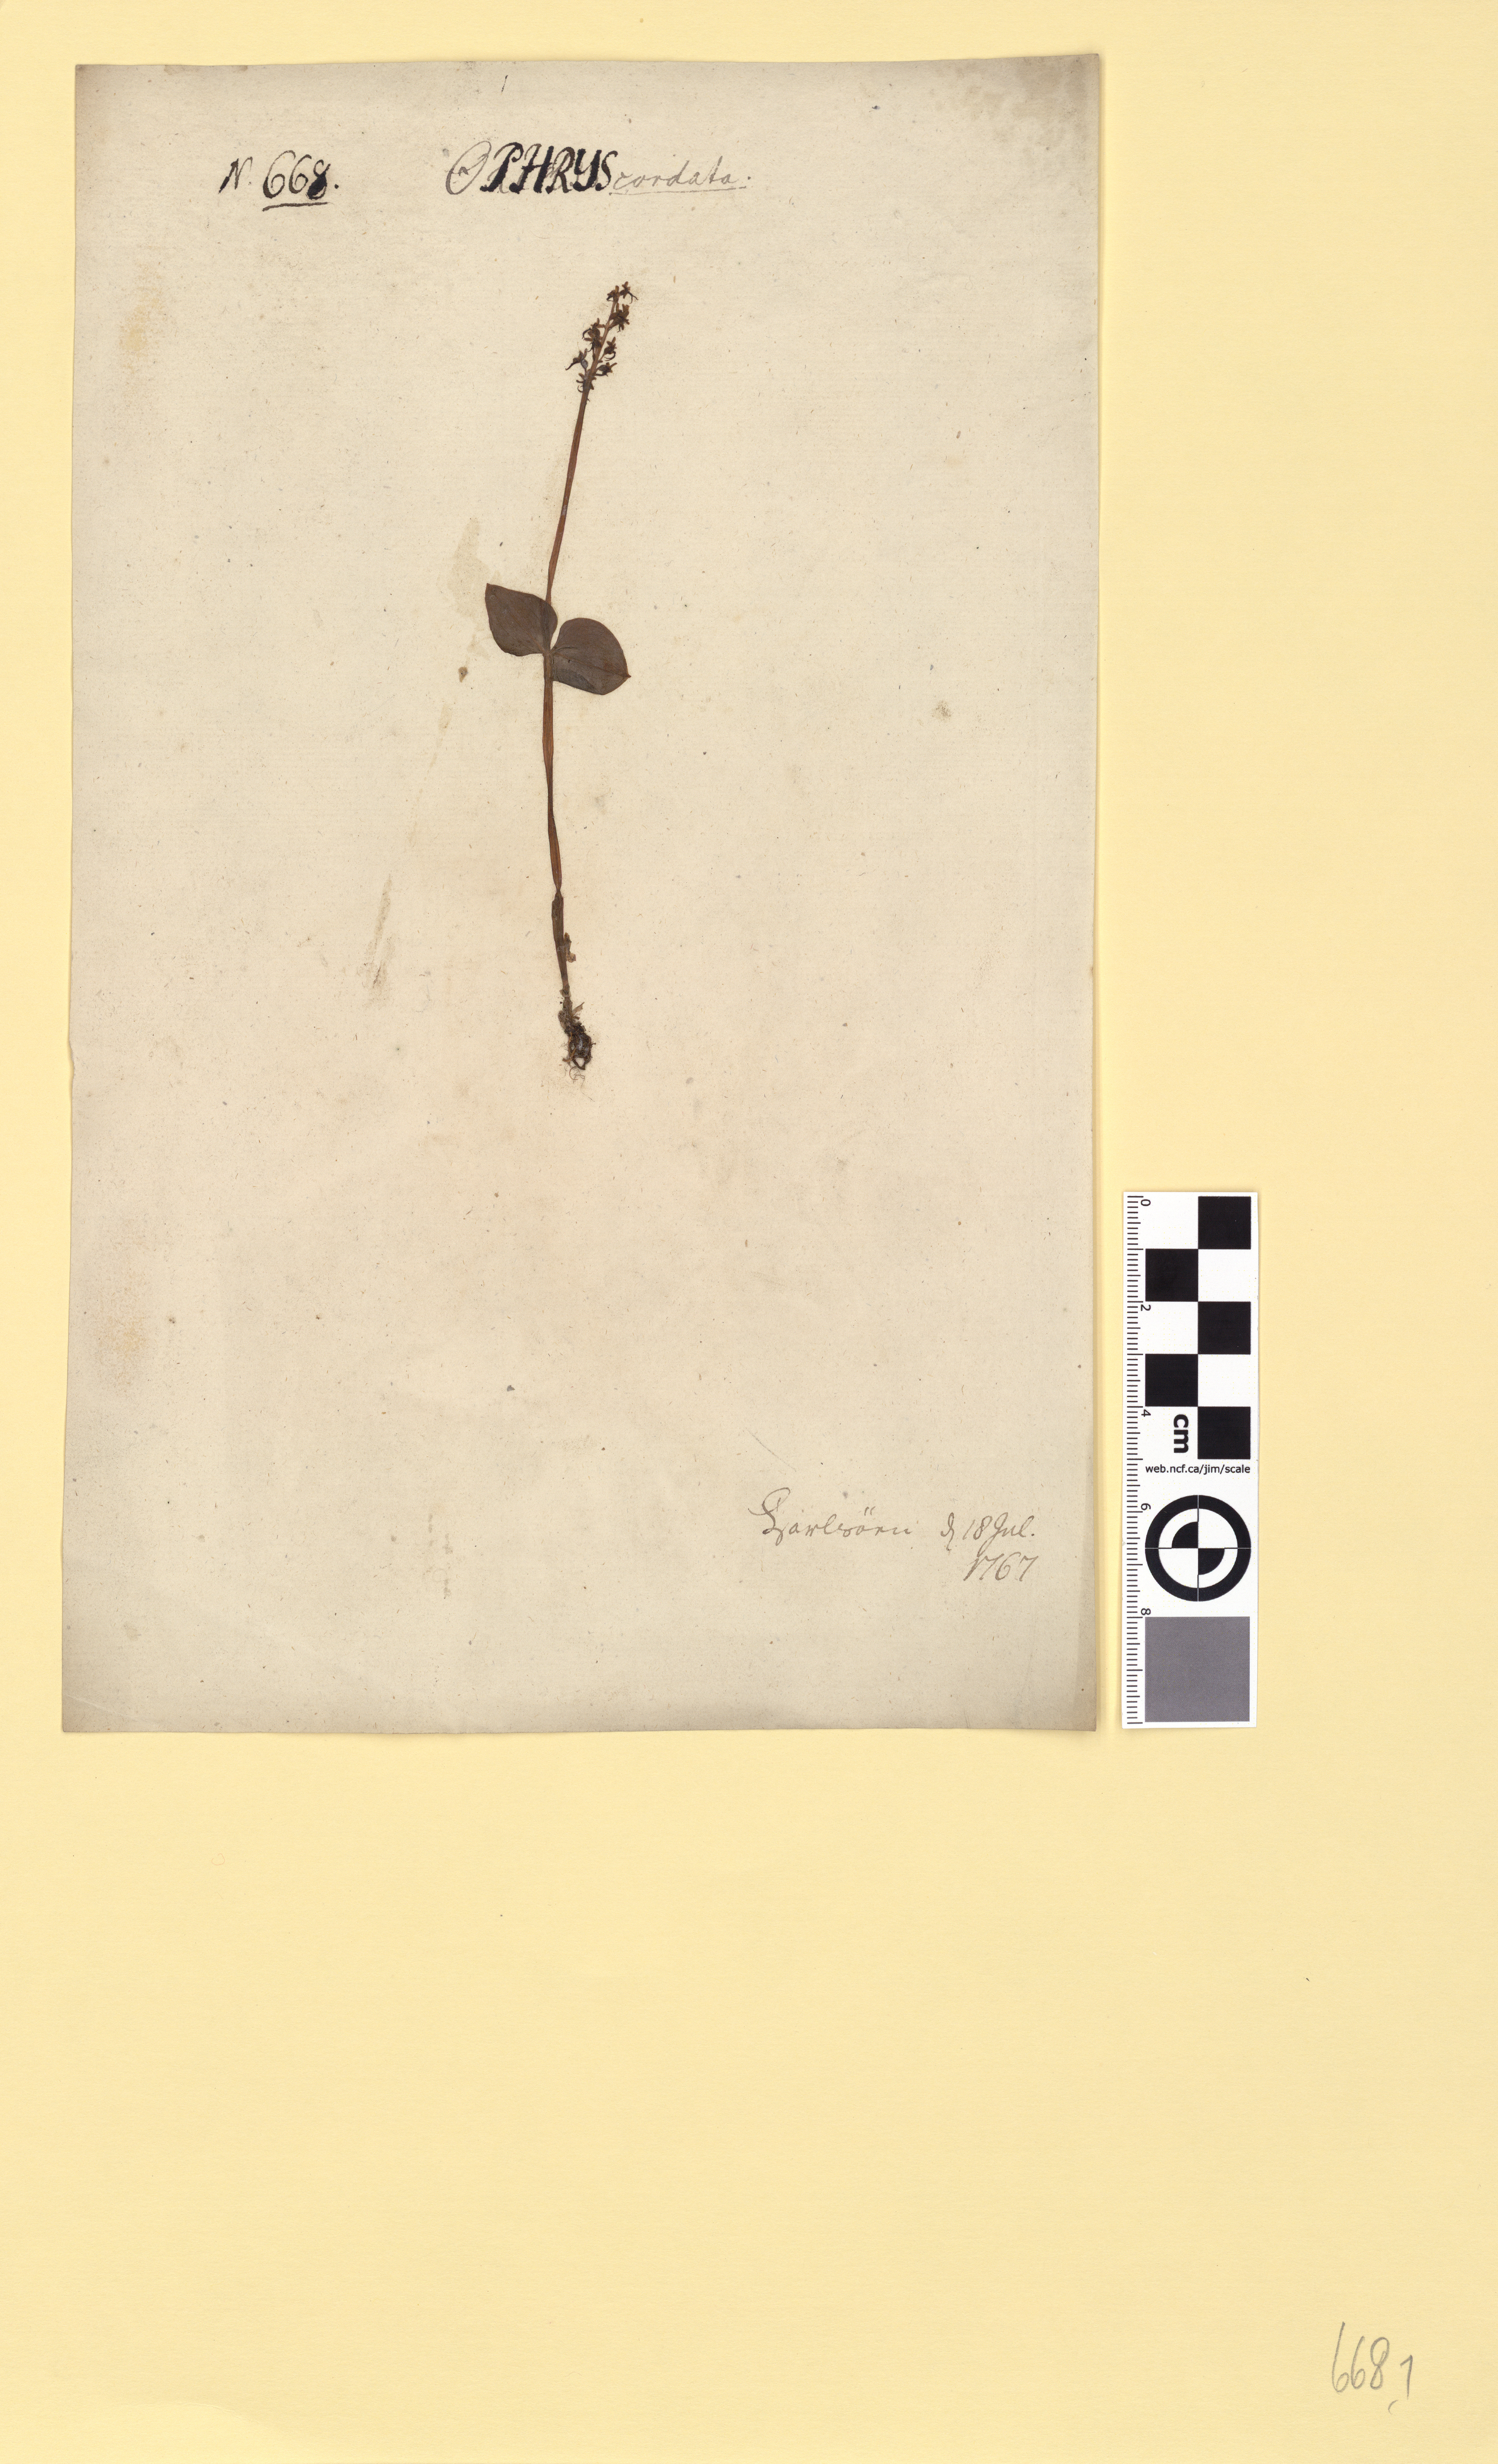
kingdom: Plantae
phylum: Tracheophyta
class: Liliopsida
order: Asparagales
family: Orchidaceae
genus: Neottia
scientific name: Neottia cordata
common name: Lesser twayblade
